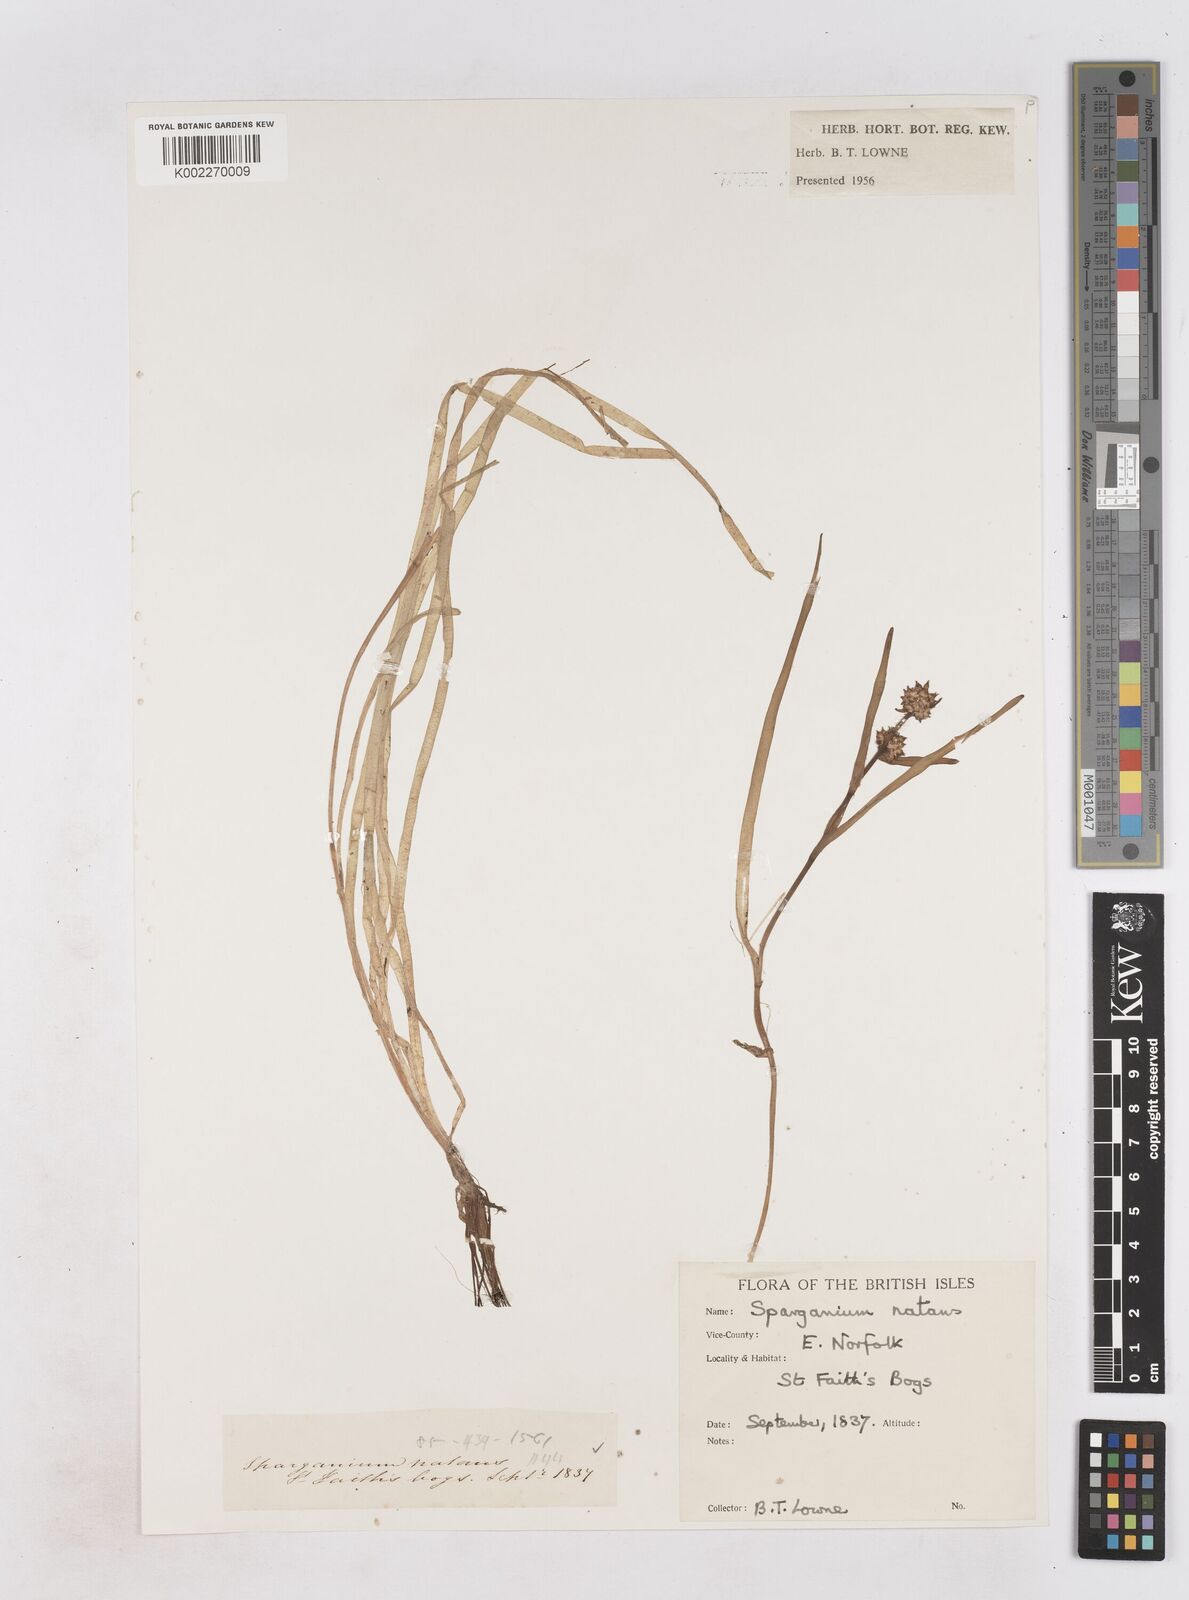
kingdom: Plantae
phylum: Tracheophyta
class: Liliopsida
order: Poales
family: Typhaceae
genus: Sparganium
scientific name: Sparganium gramineum
